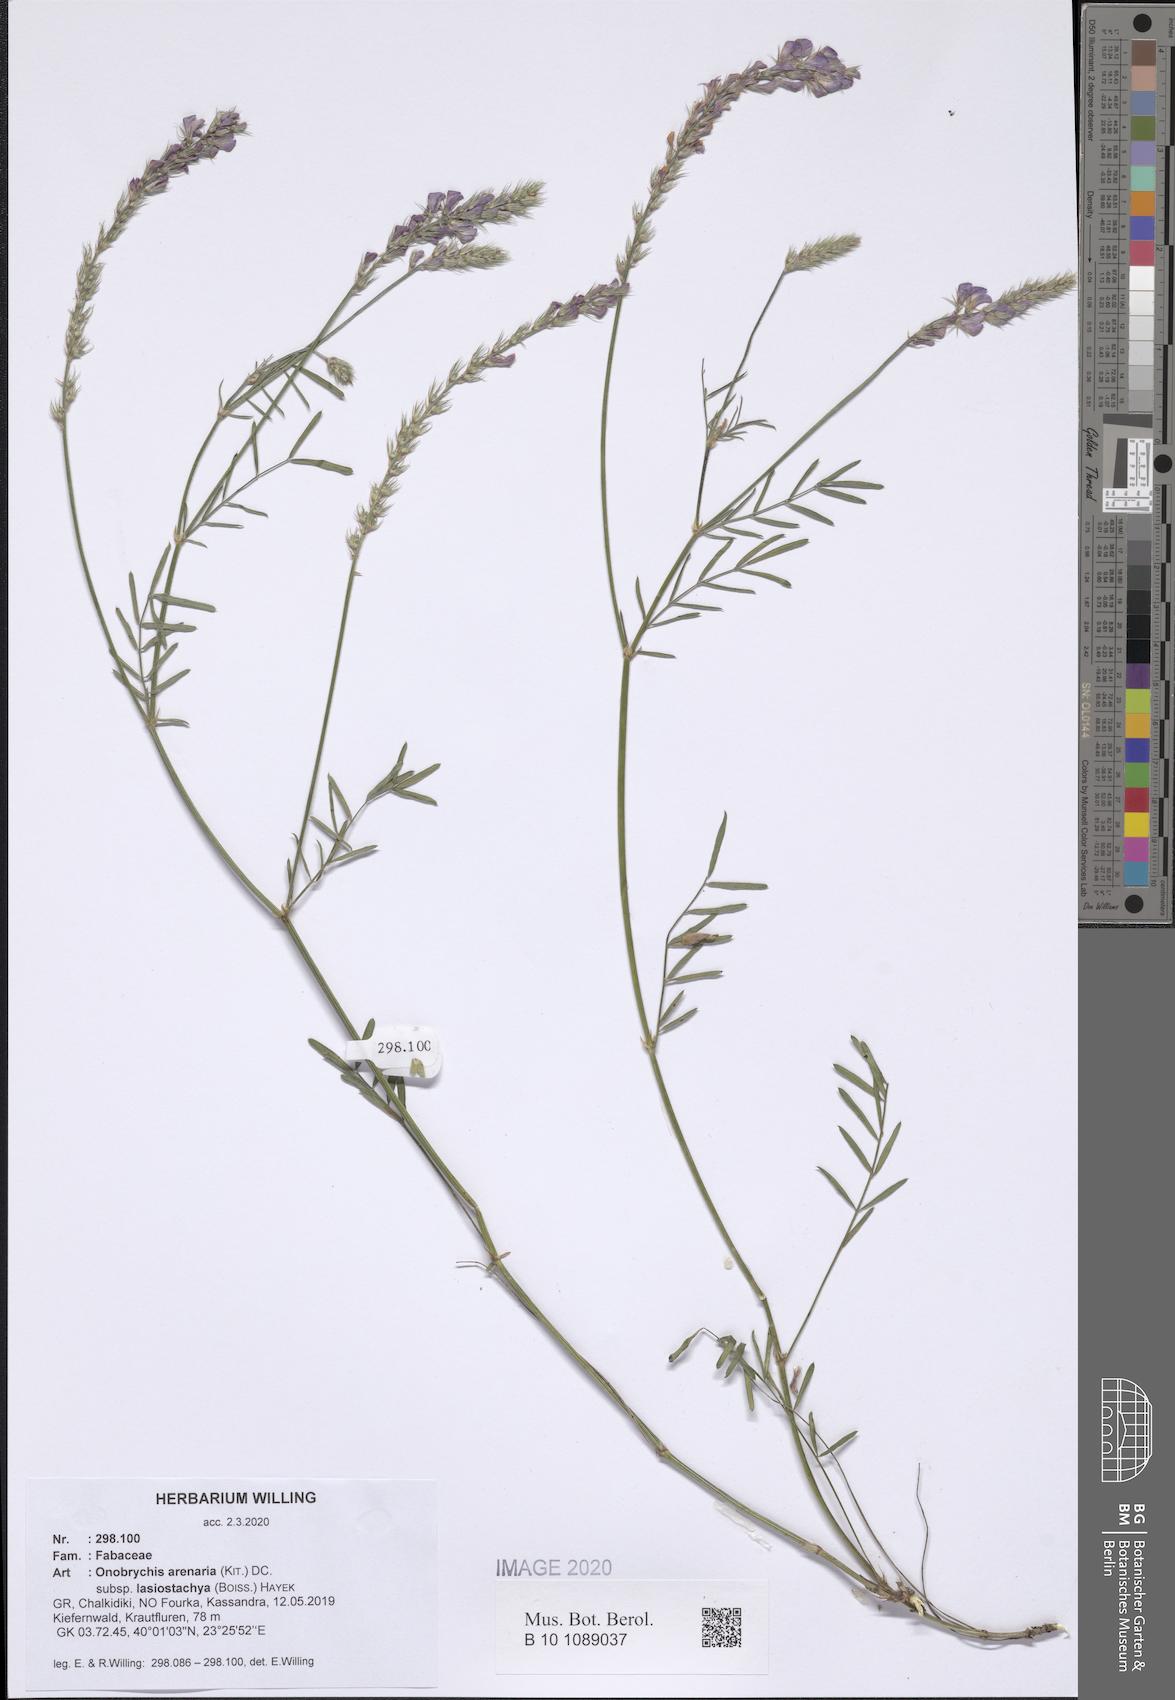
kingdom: Plantae
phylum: Tracheophyta
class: Magnoliopsida
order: Fabales
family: Fabaceae
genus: Onobrychis
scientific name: Onobrychis arenaria
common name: Sand esparcet
